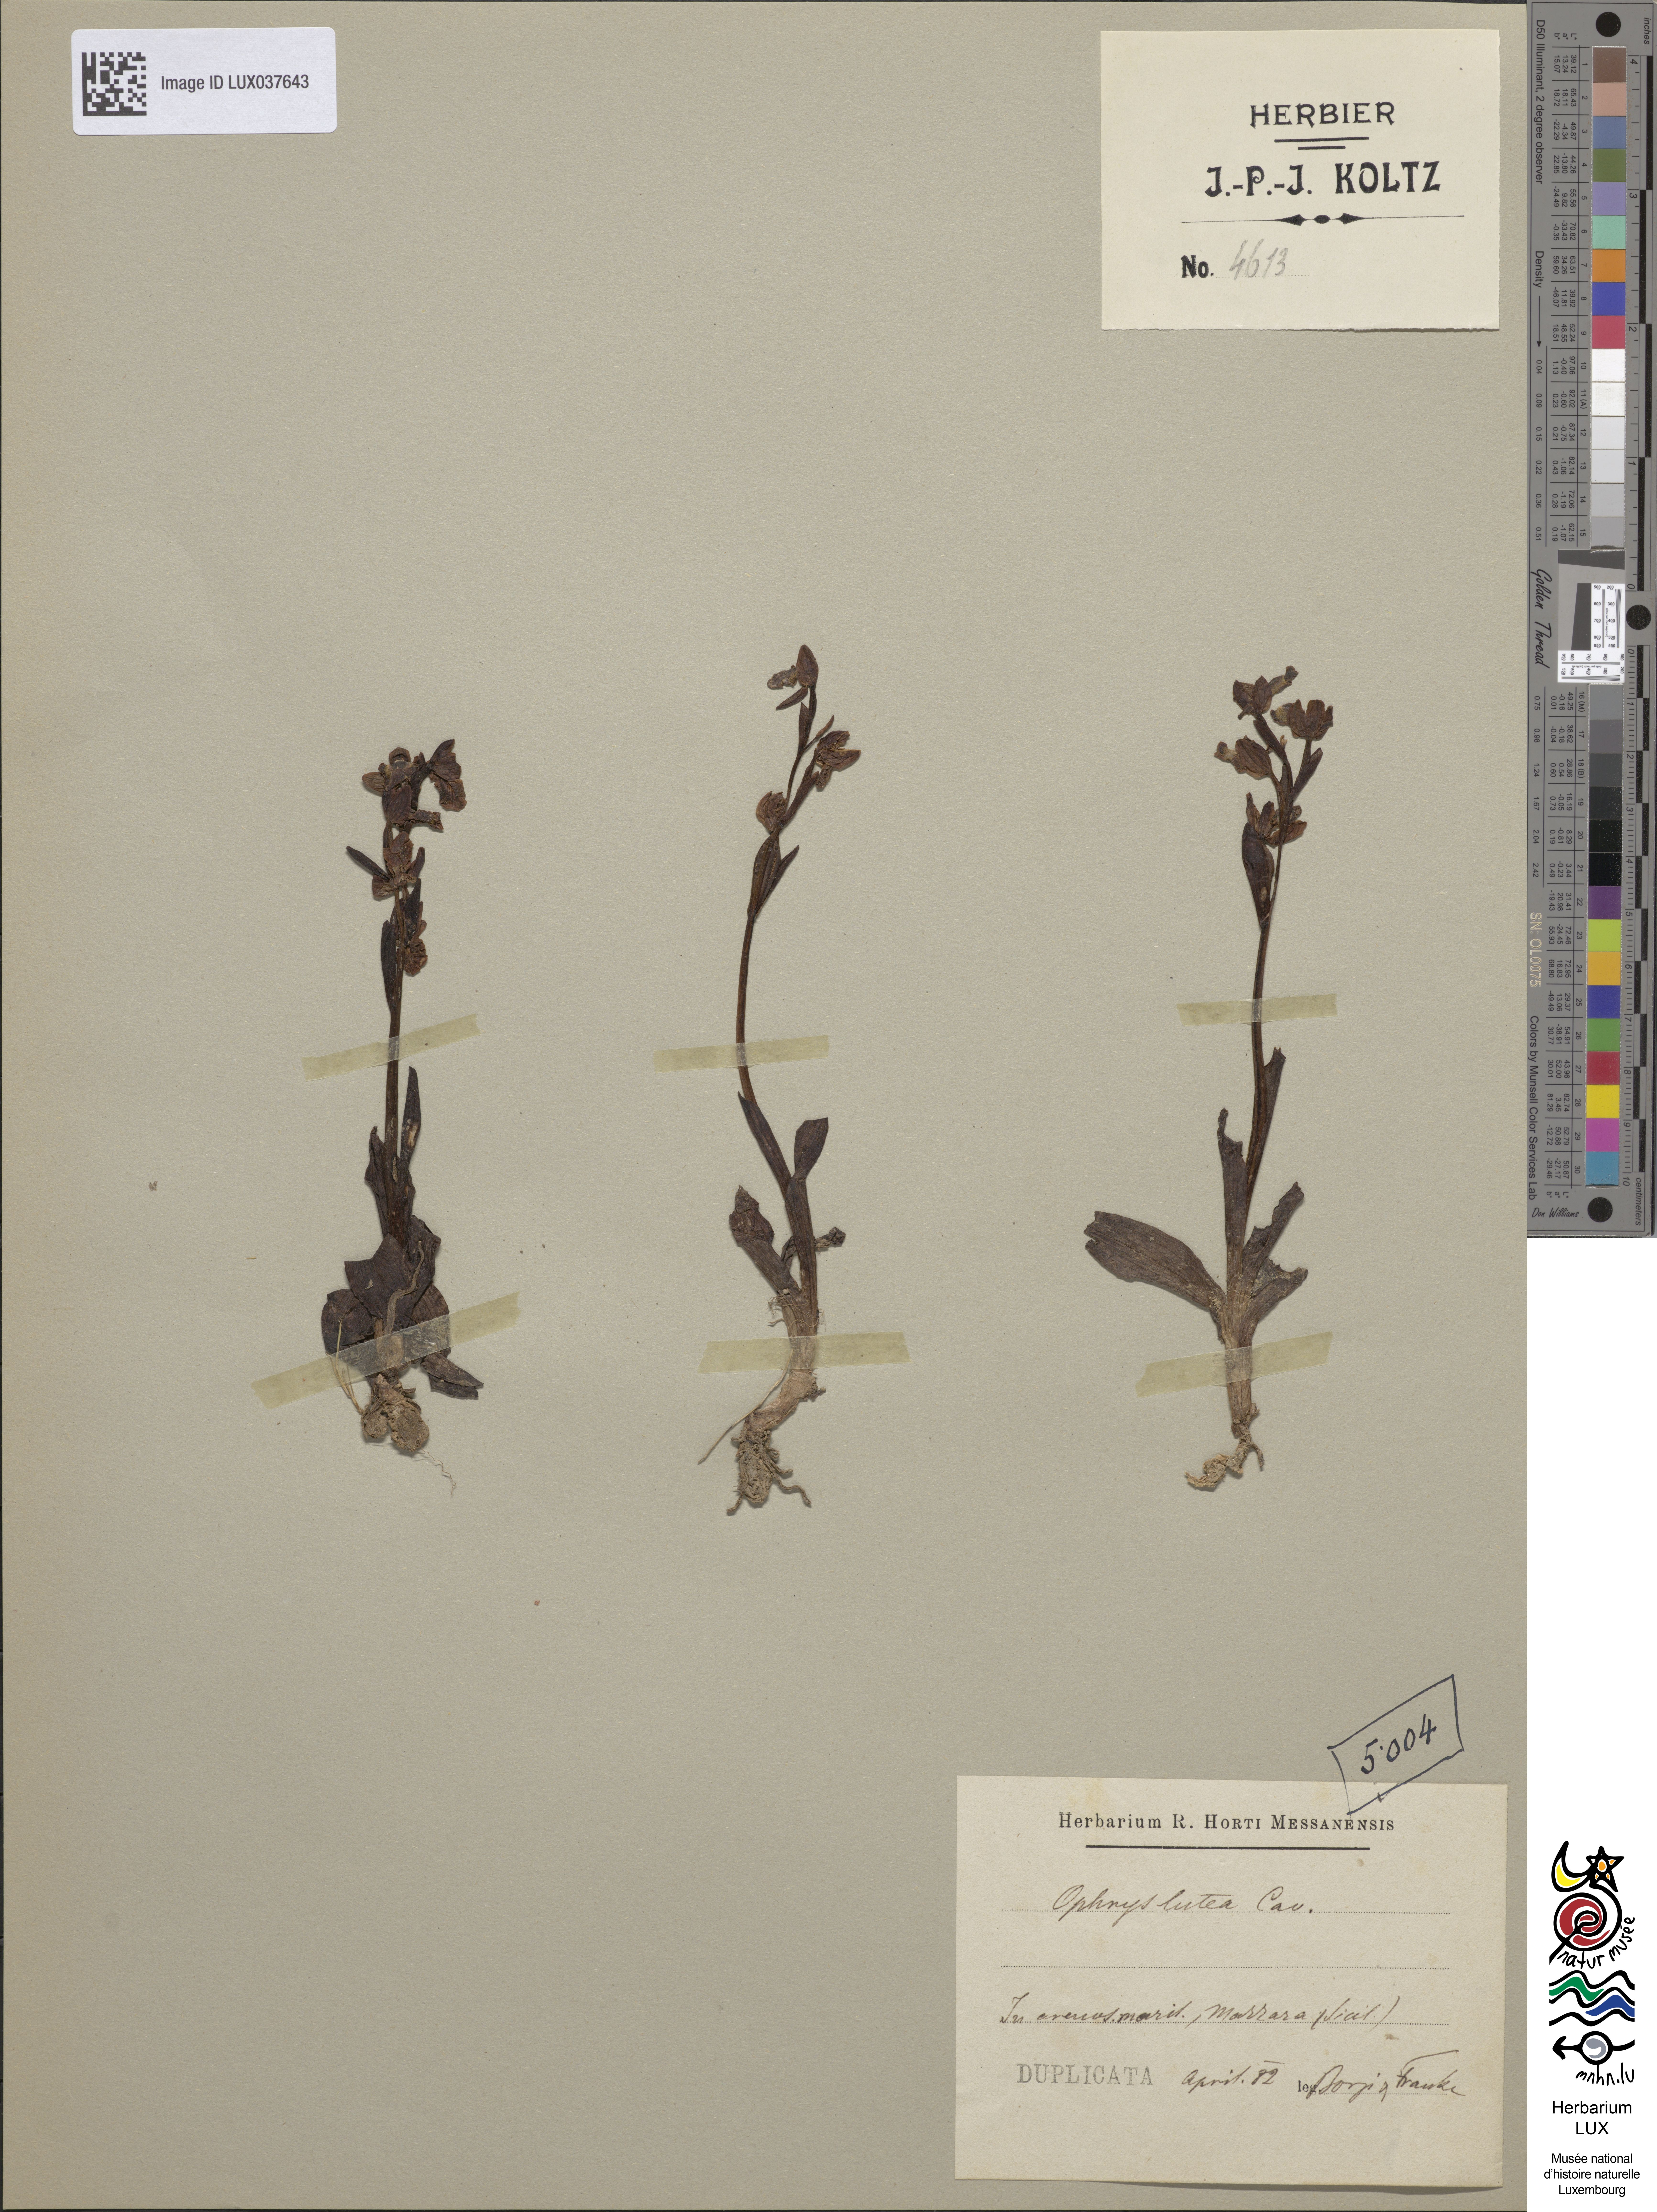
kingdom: Plantae
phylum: Tracheophyta
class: Liliopsida
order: Asparagales
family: Orchidaceae
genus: Ophrys
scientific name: Ophrys lutea
